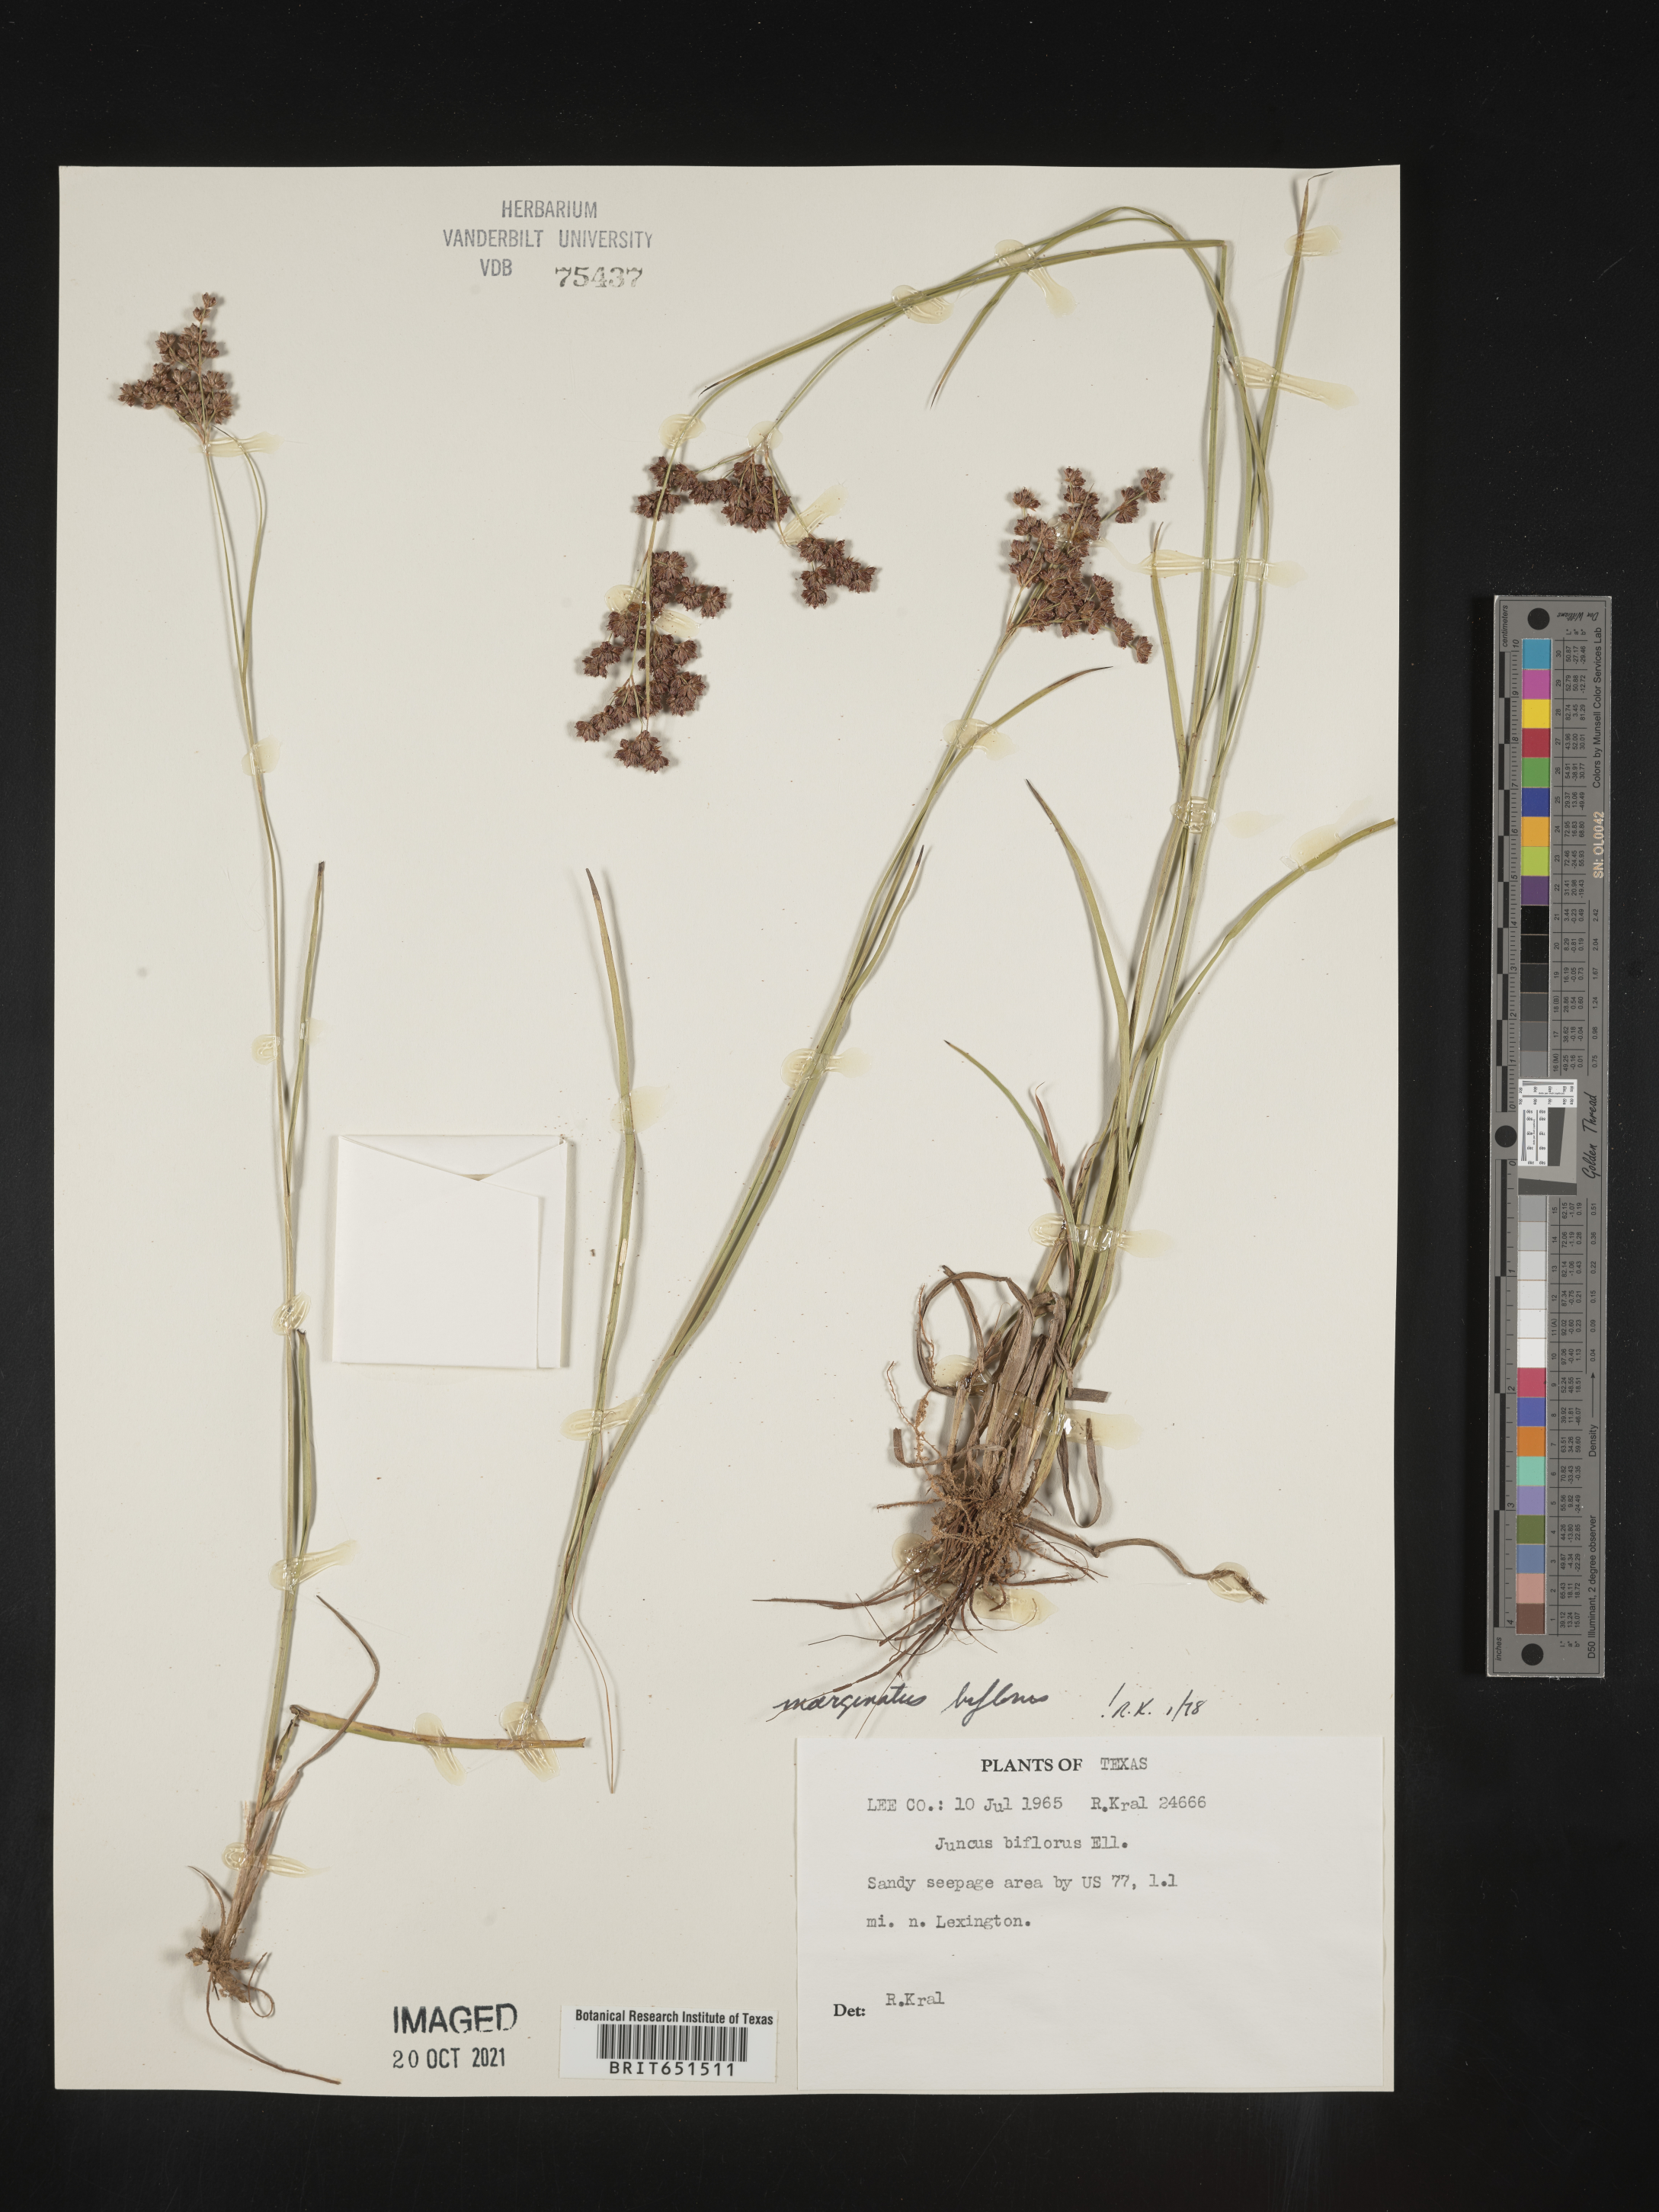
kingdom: Plantae
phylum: Tracheophyta
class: Liliopsida
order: Poales
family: Juncaceae
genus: Juncus
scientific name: Juncus biflorus
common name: Two-flowered rush
